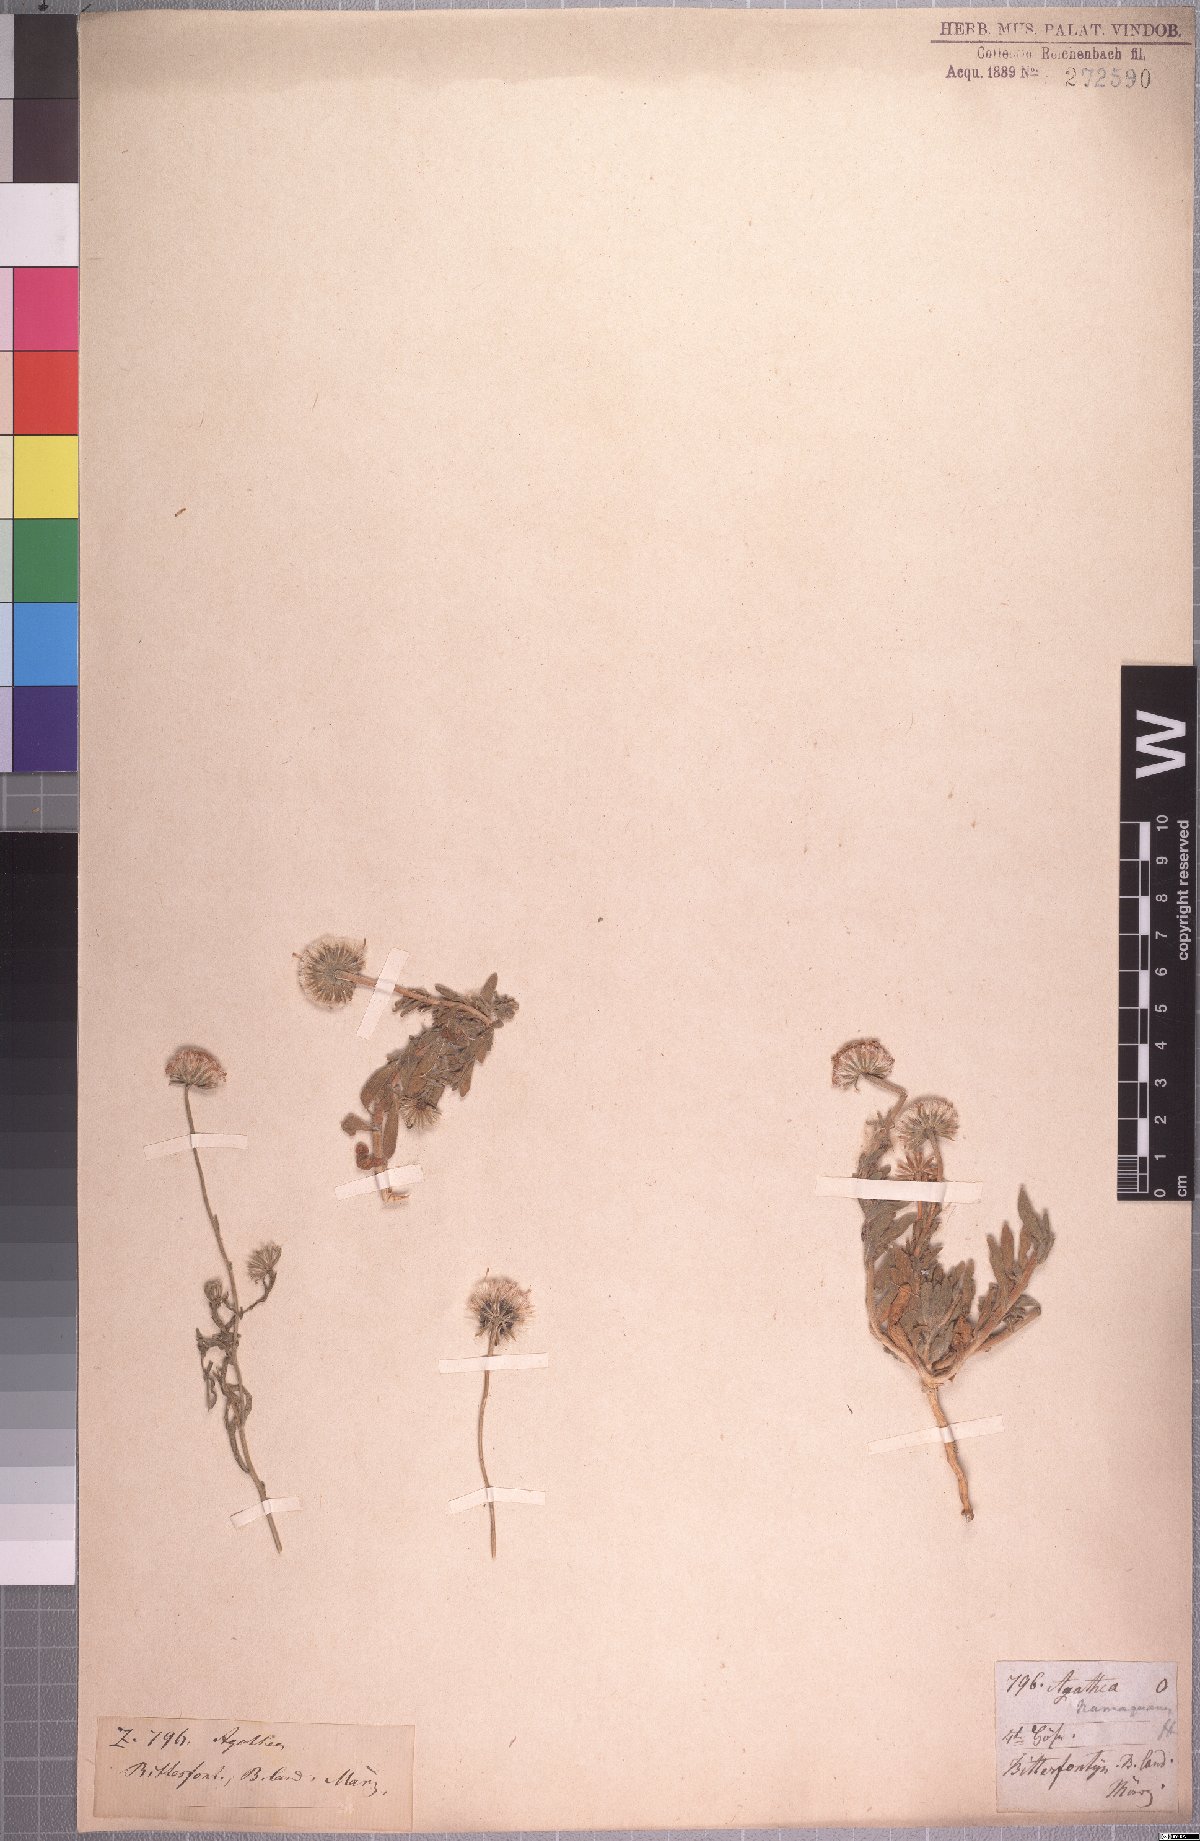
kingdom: Plantae
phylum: Tracheophyta
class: Magnoliopsida
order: Asterales
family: Asteraceae
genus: Felicia
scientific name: Felicia namaquana
